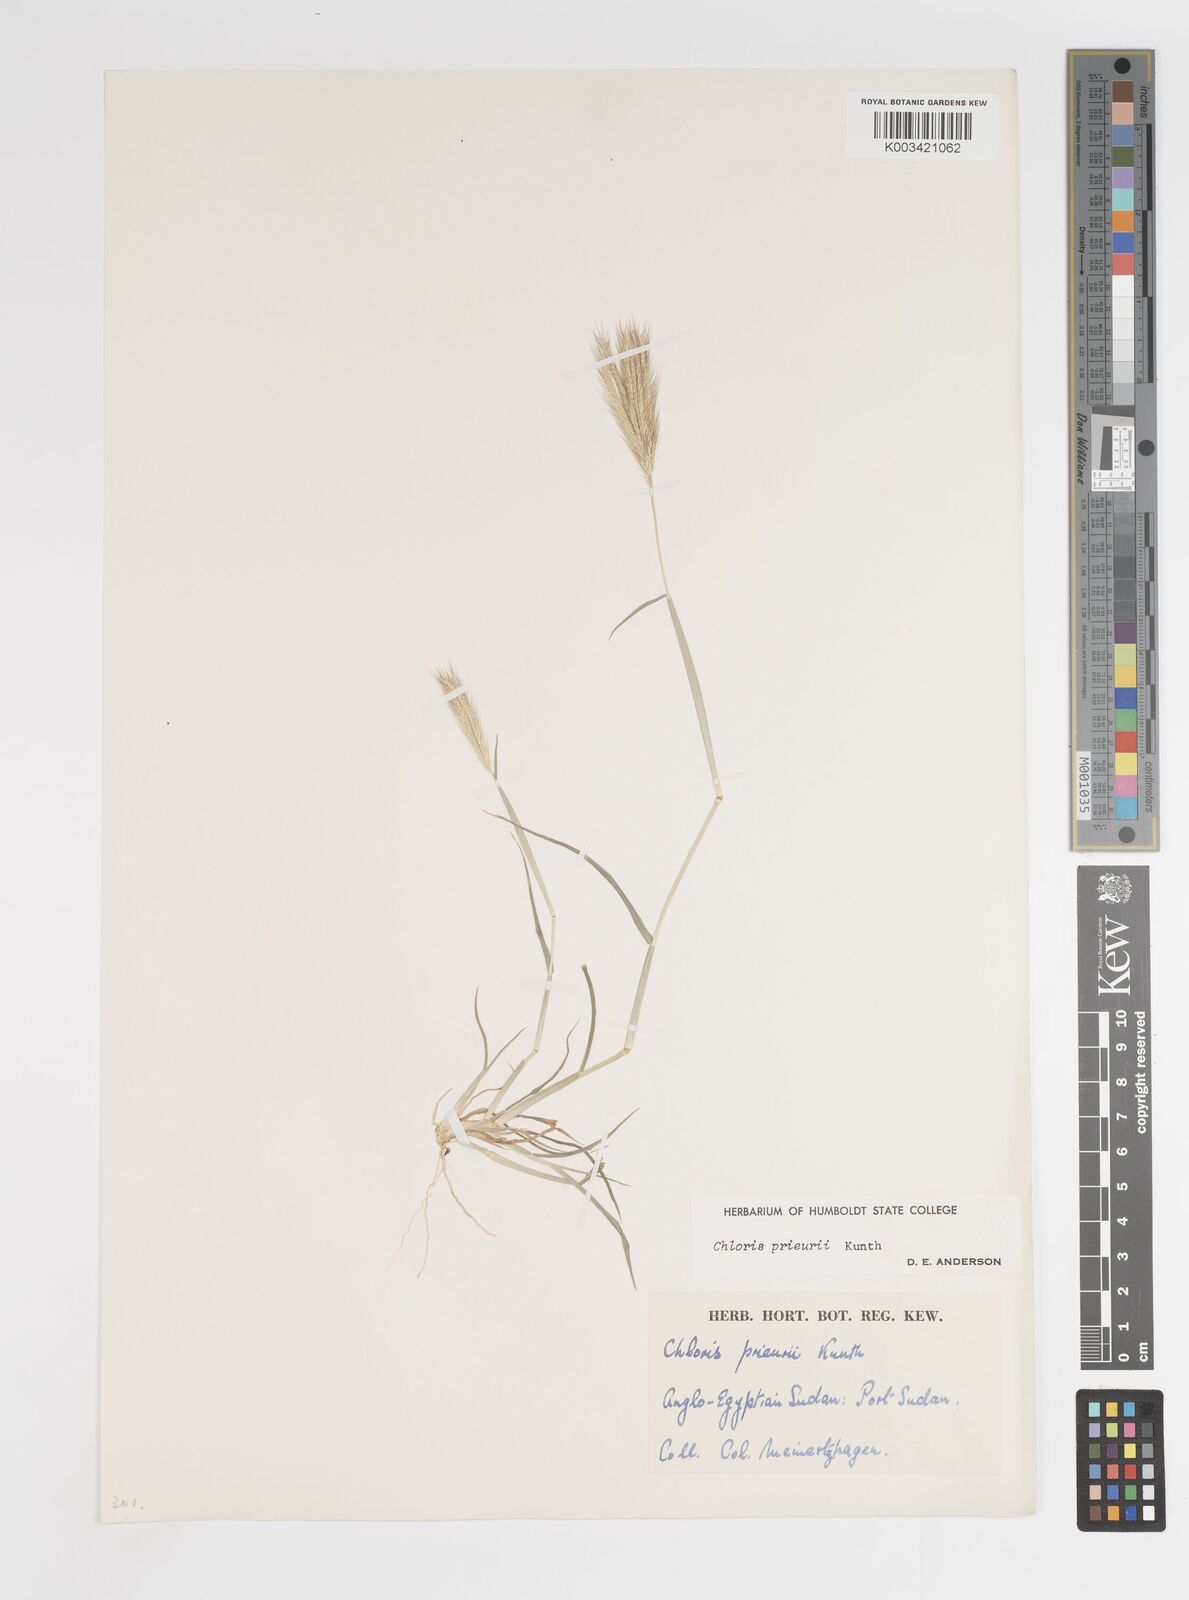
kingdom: Plantae
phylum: Tracheophyta
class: Liliopsida
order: Poales
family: Poaceae
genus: Enteropogon
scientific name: Enteropogon prieurii
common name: Prieur's umbrellagrass
